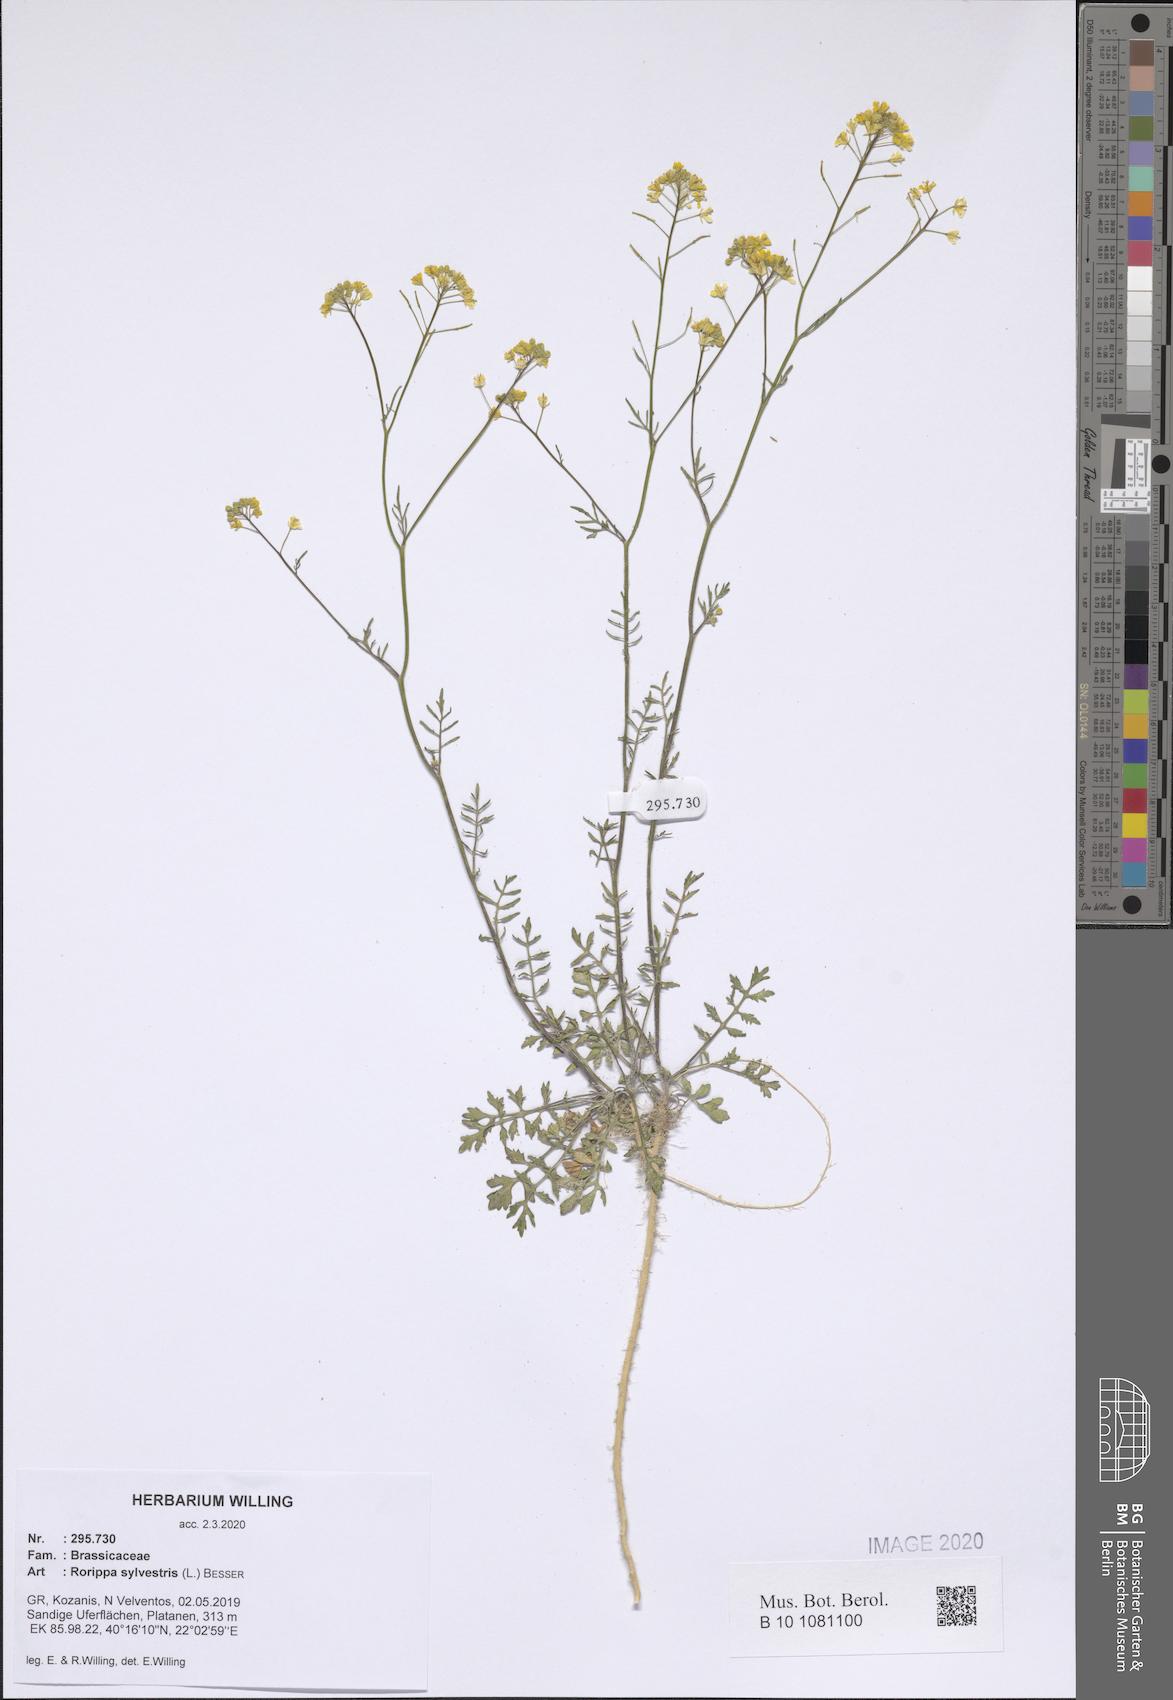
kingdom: Plantae
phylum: Tracheophyta
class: Magnoliopsida
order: Brassicales
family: Brassicaceae
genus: Rorippa
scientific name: Rorippa sylvestris
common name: Creeping yellowcress
